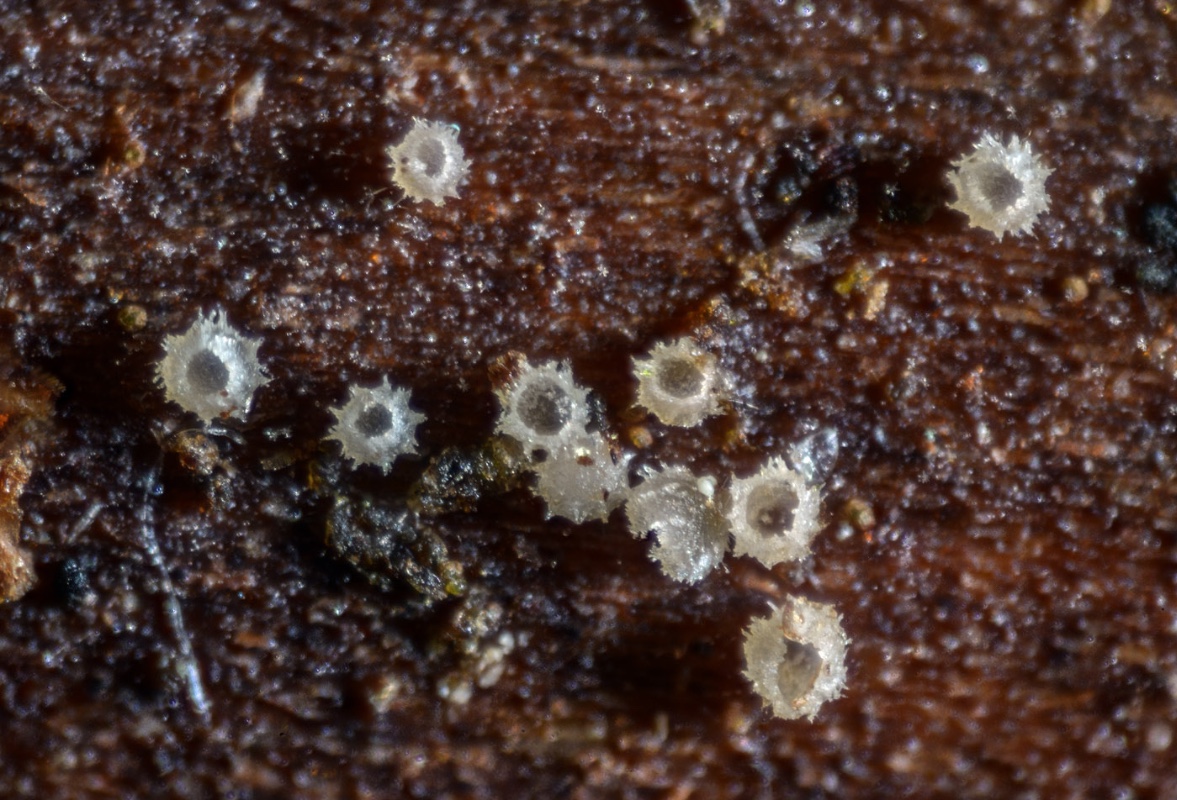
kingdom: Fungi
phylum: Ascomycota
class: Leotiomycetes
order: Helotiales
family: Hyaloscyphaceae
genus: Unguicularia
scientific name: Unguicularia carestiana
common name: bregne-kugleskive
